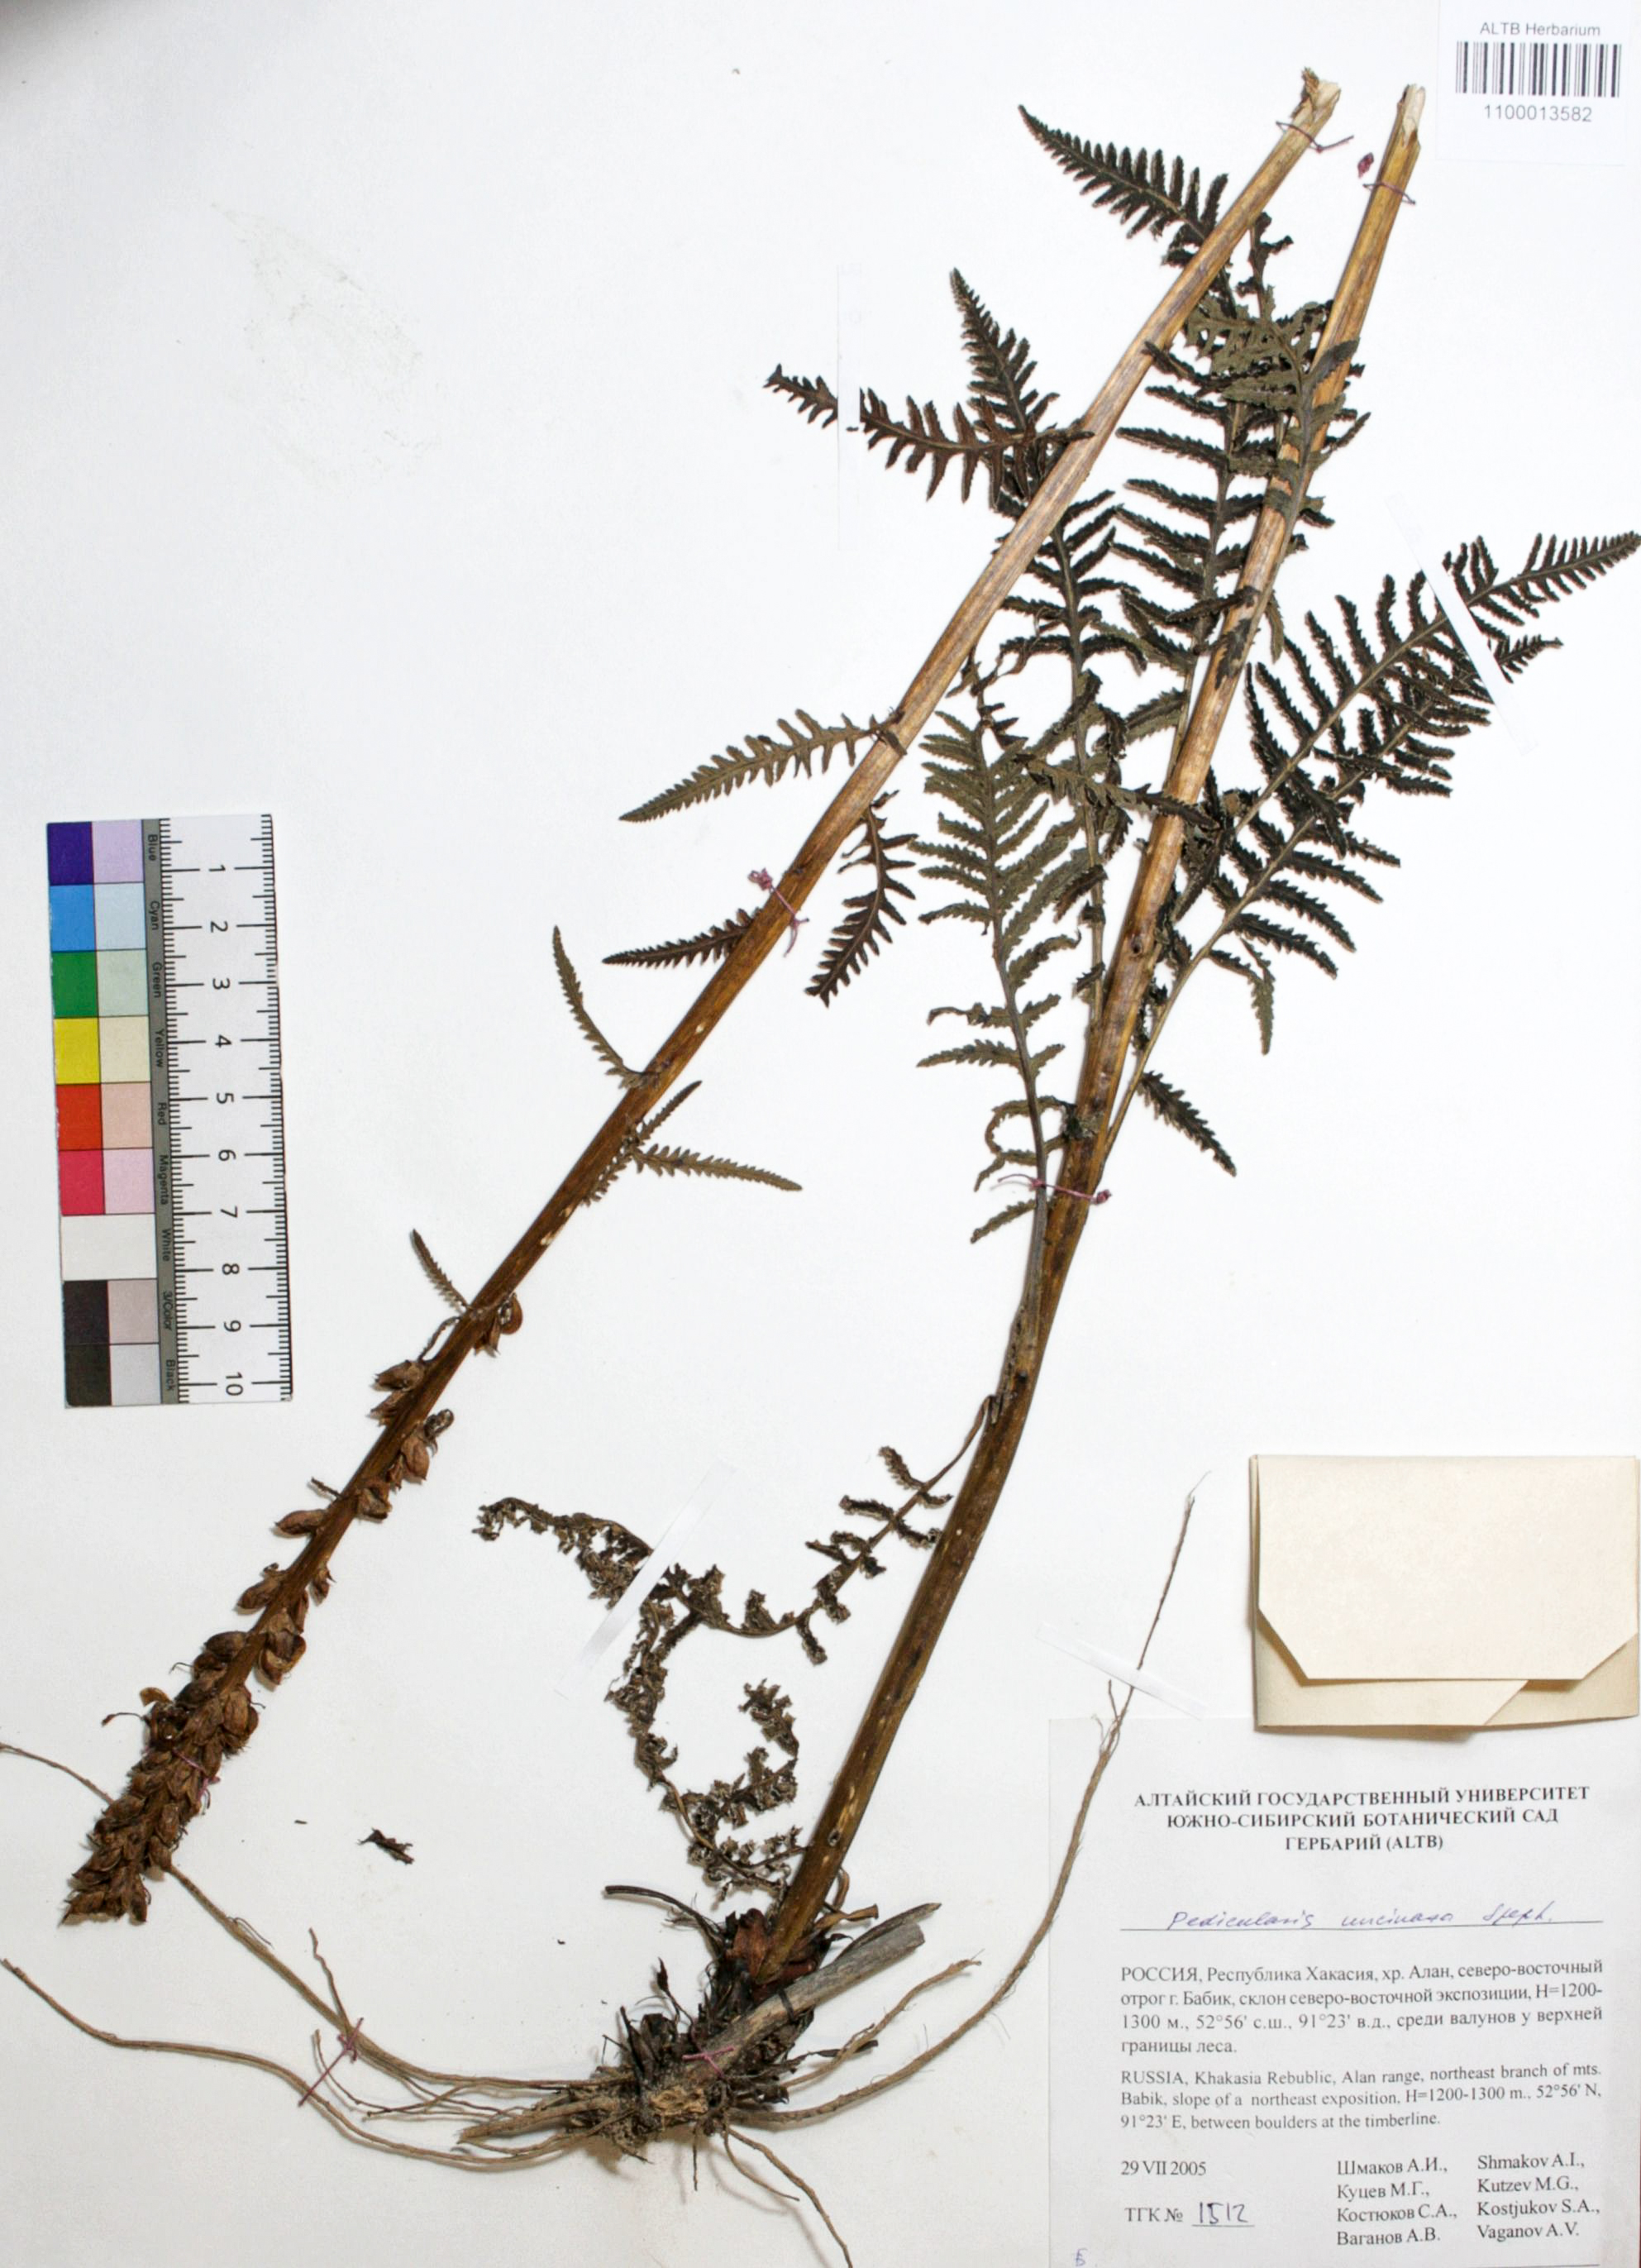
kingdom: Plantae
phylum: Tracheophyta
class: Magnoliopsida
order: Lamiales
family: Orobanchaceae
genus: Pedicularis
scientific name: Pedicularis incarnata
